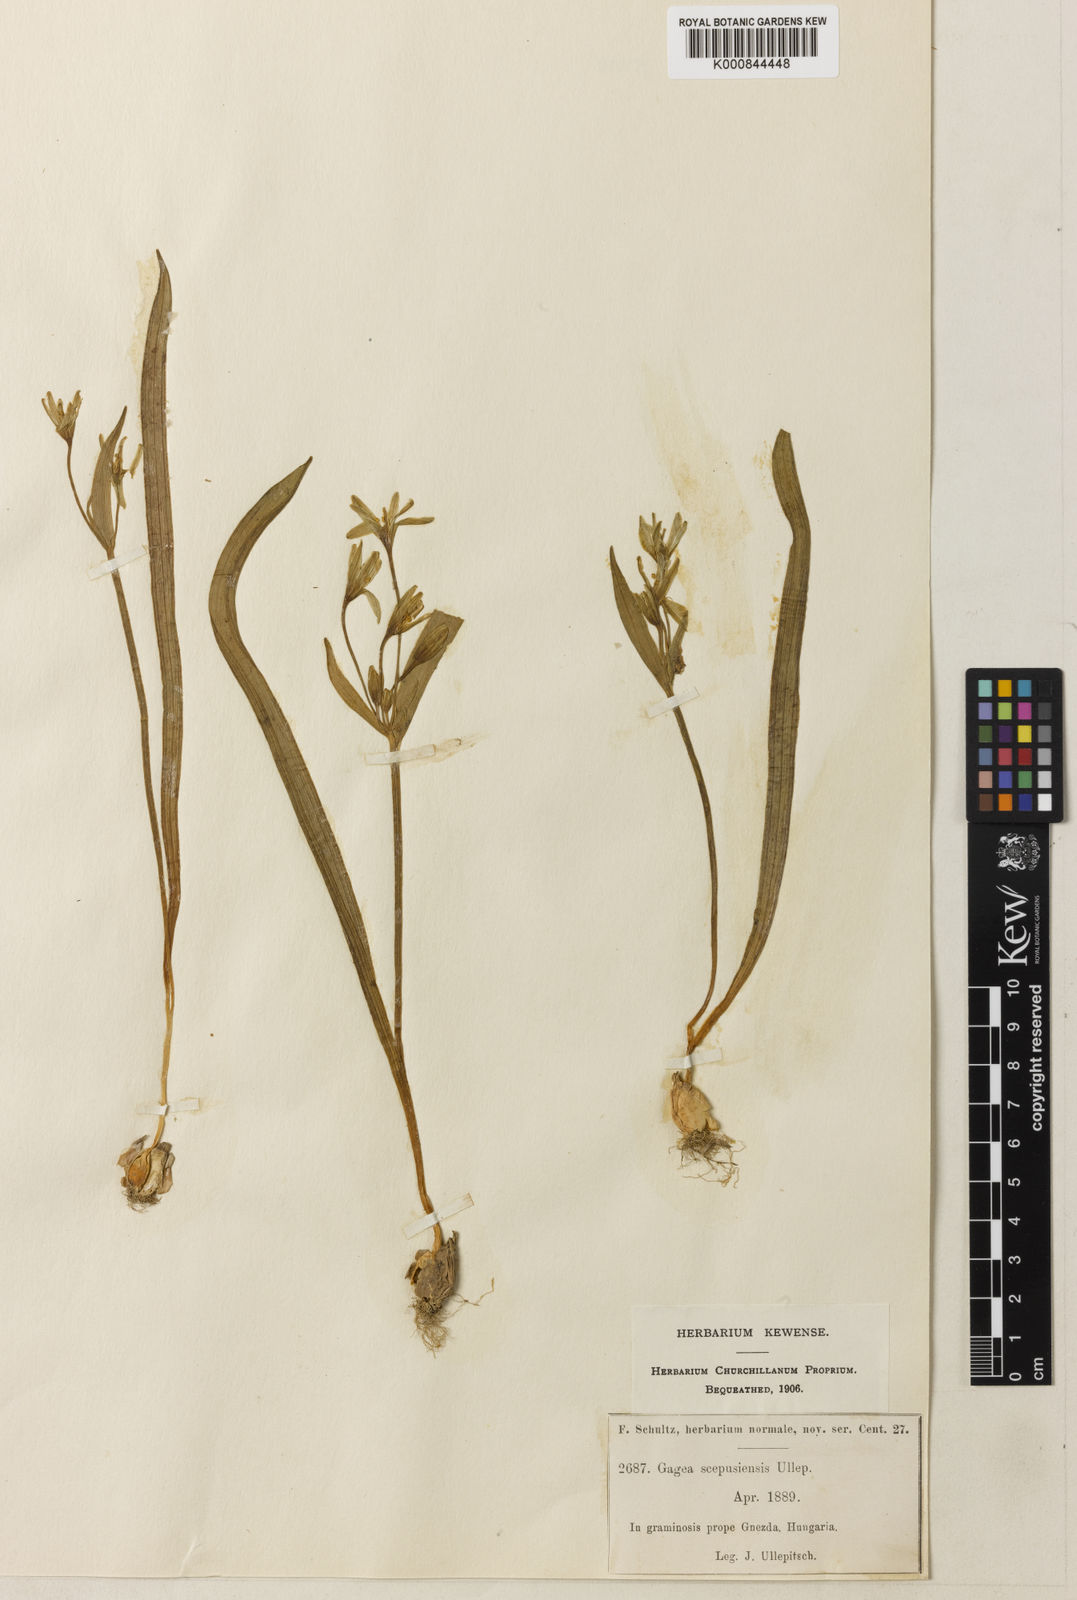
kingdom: Plantae
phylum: Tracheophyta
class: Liliopsida
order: Liliales
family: Liliaceae
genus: Gagea
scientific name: Gagea
